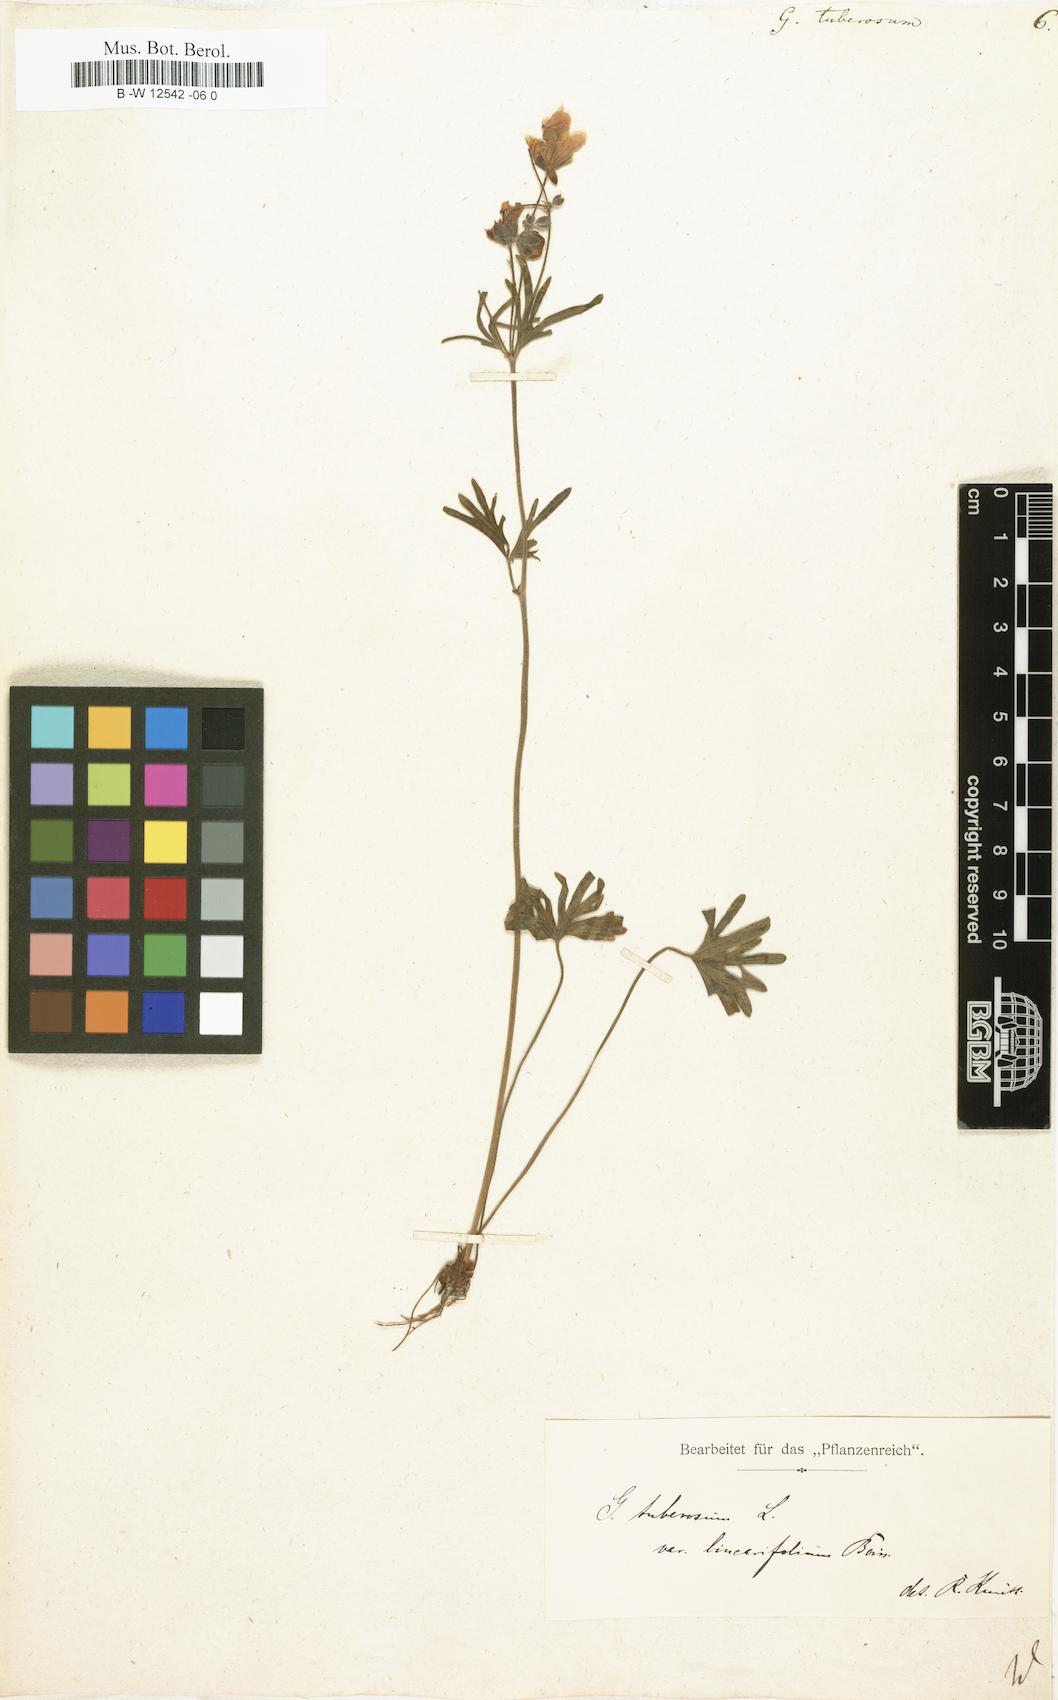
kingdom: Plantae
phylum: Tracheophyta
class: Magnoliopsida
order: Geraniales
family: Geraniaceae
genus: Geranium
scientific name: Geranium tuberosum
